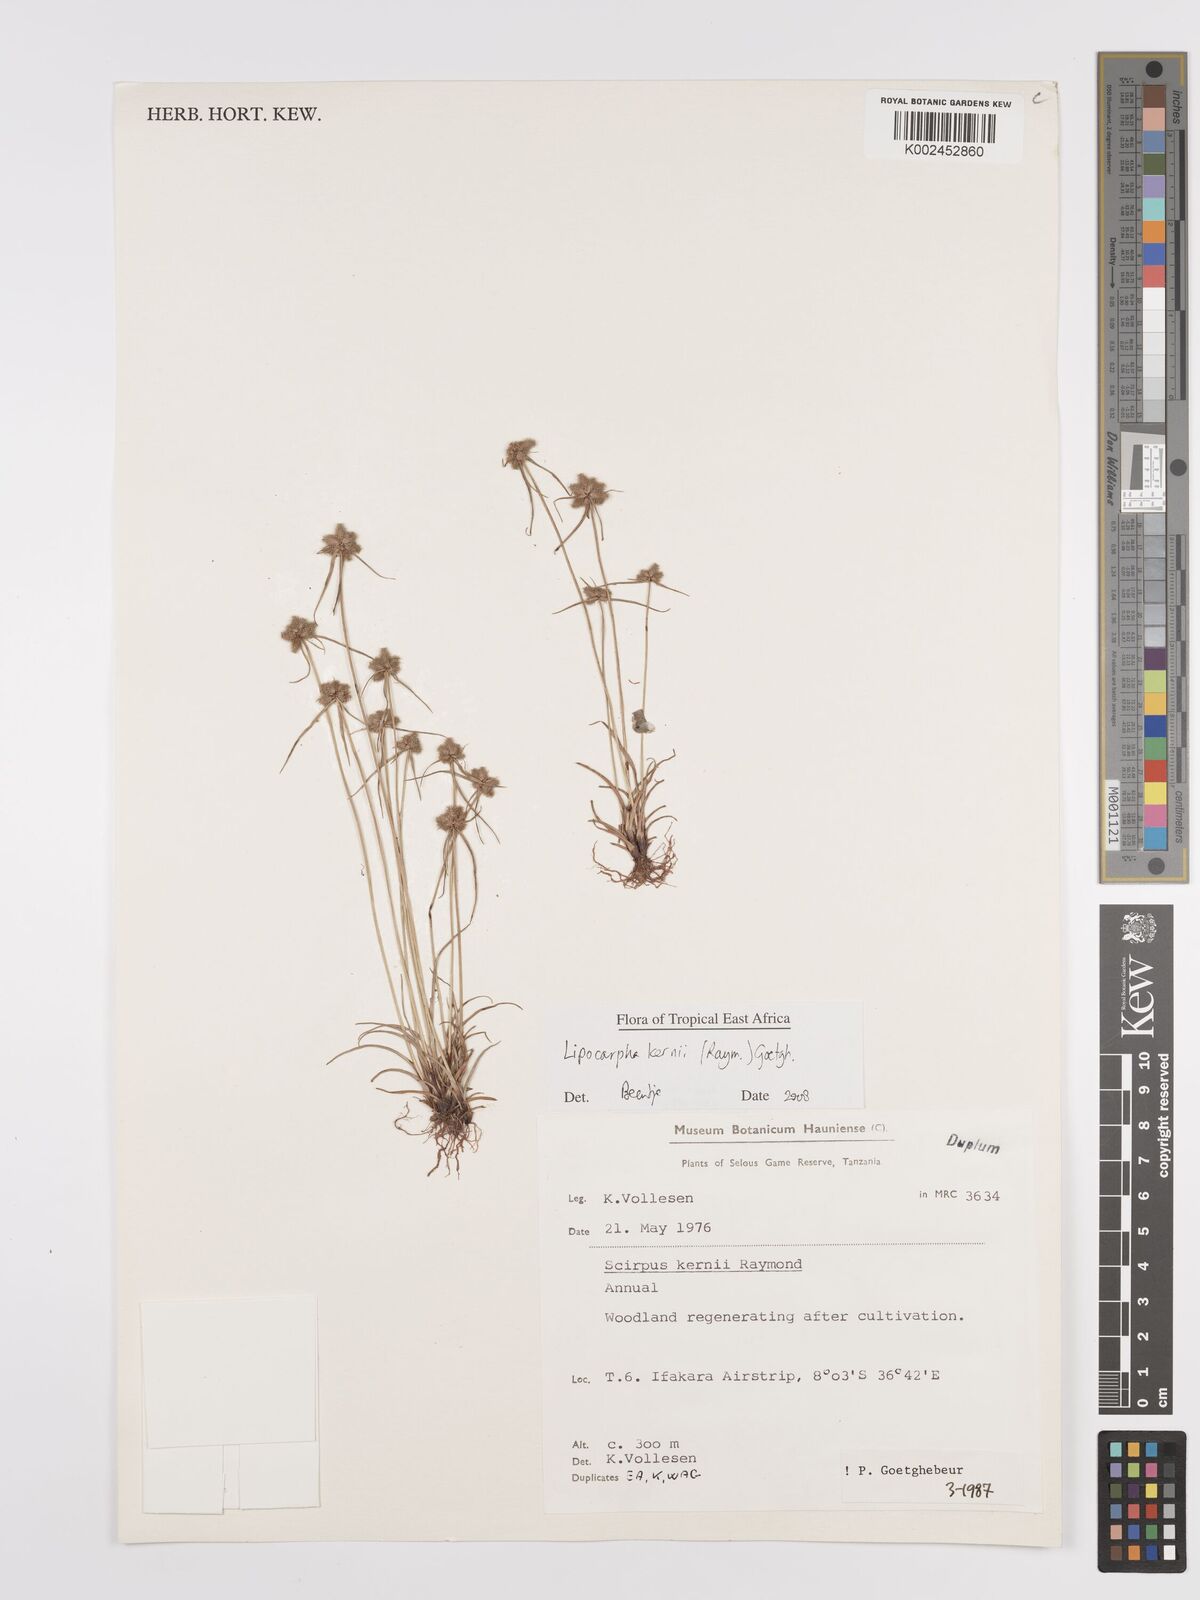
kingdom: Plantae
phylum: Tracheophyta
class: Liliopsida
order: Poales
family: Cyperaceae
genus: Cyperus
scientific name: Cyperus kernii
